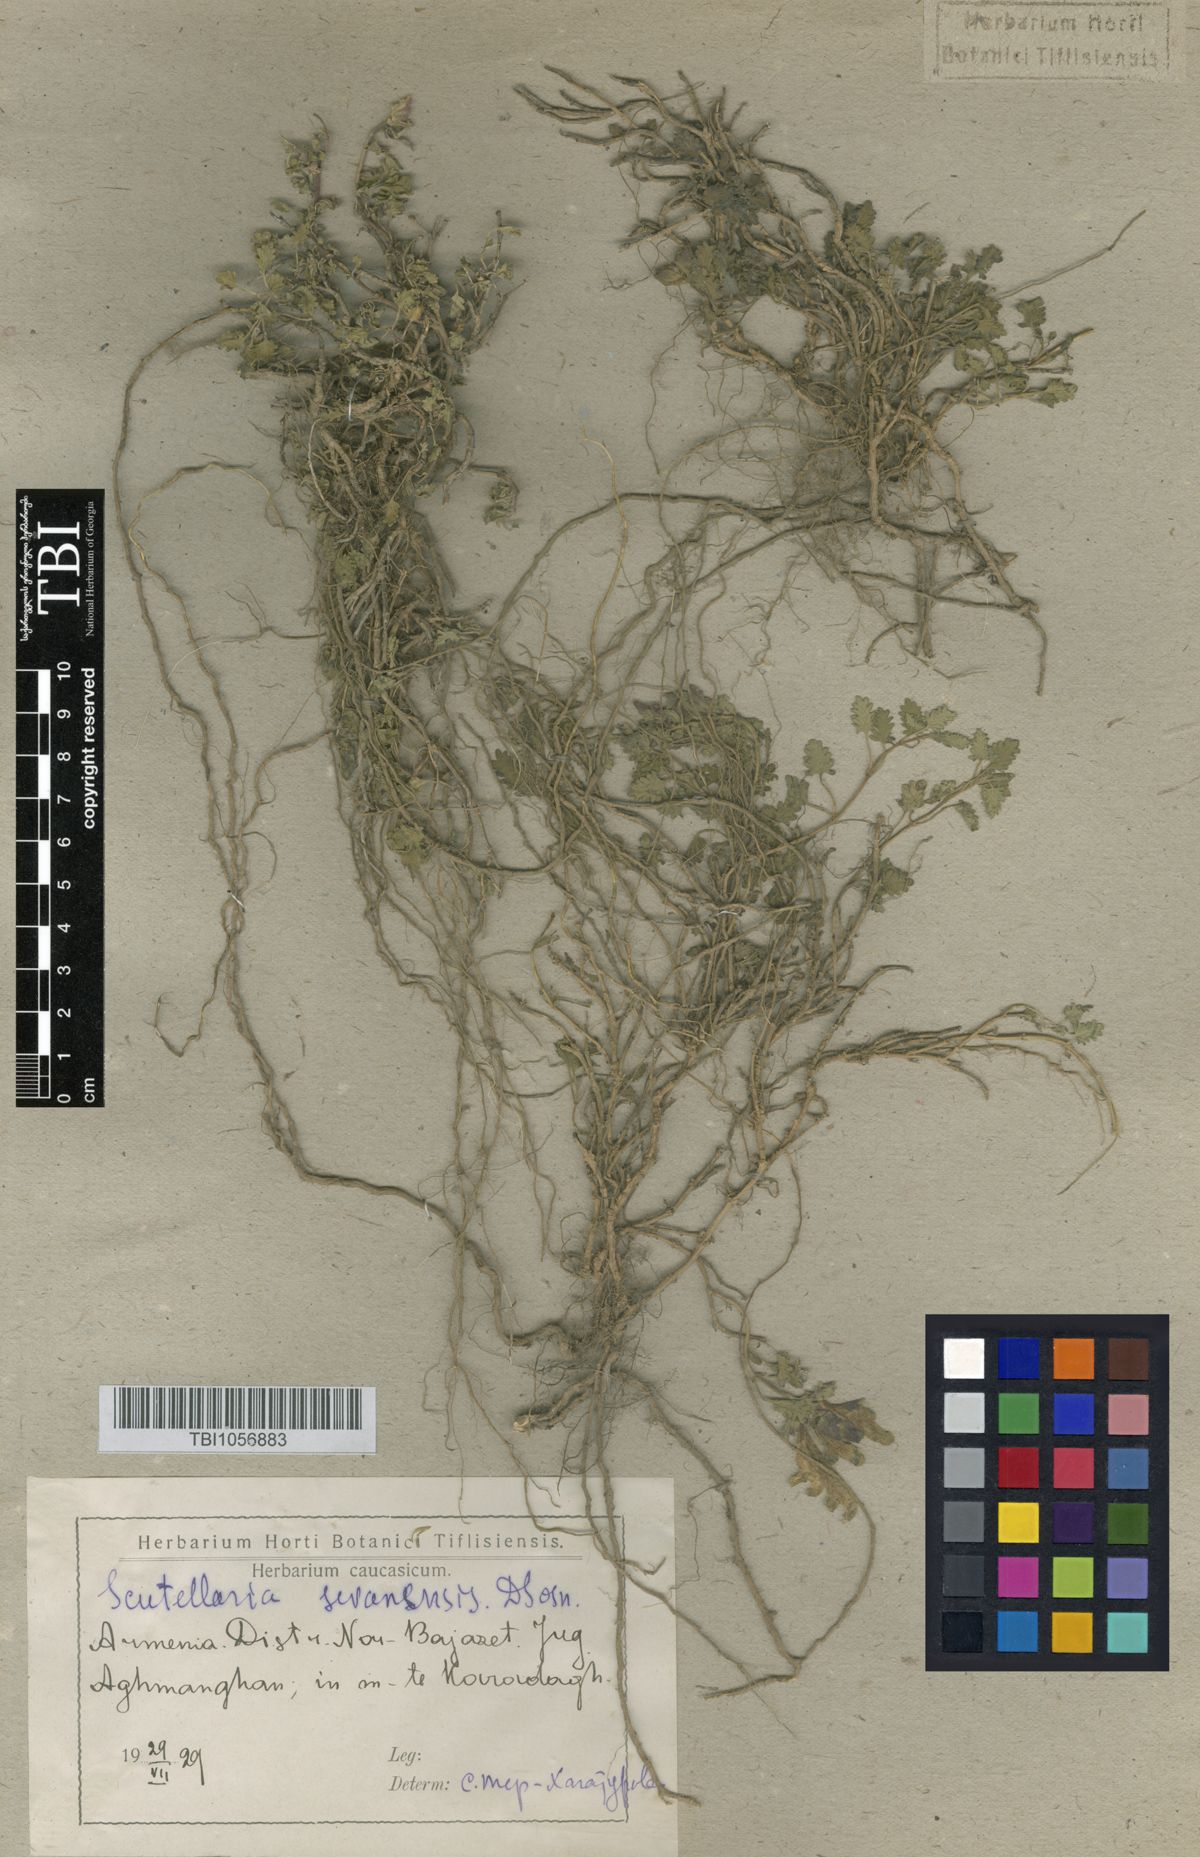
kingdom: Plantae
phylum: Tracheophyta
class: Magnoliopsida
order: Lamiales
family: Lamiaceae
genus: Scutellaria
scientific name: Scutellaria sevanensis
